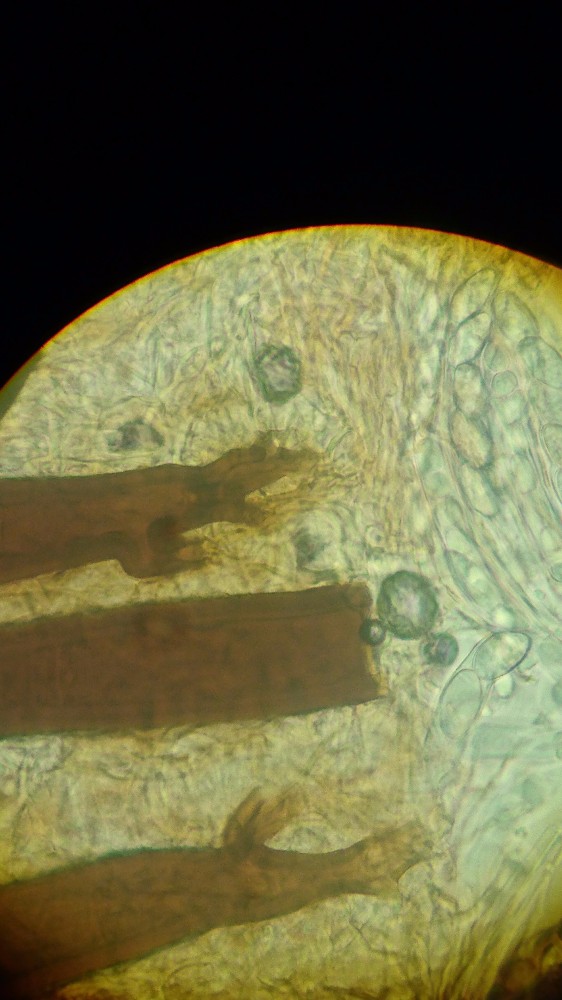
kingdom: Fungi
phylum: Ascomycota
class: Pezizomycetes
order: Pezizales
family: Pyronemataceae
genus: Scutellinia
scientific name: Scutellinia hirta
